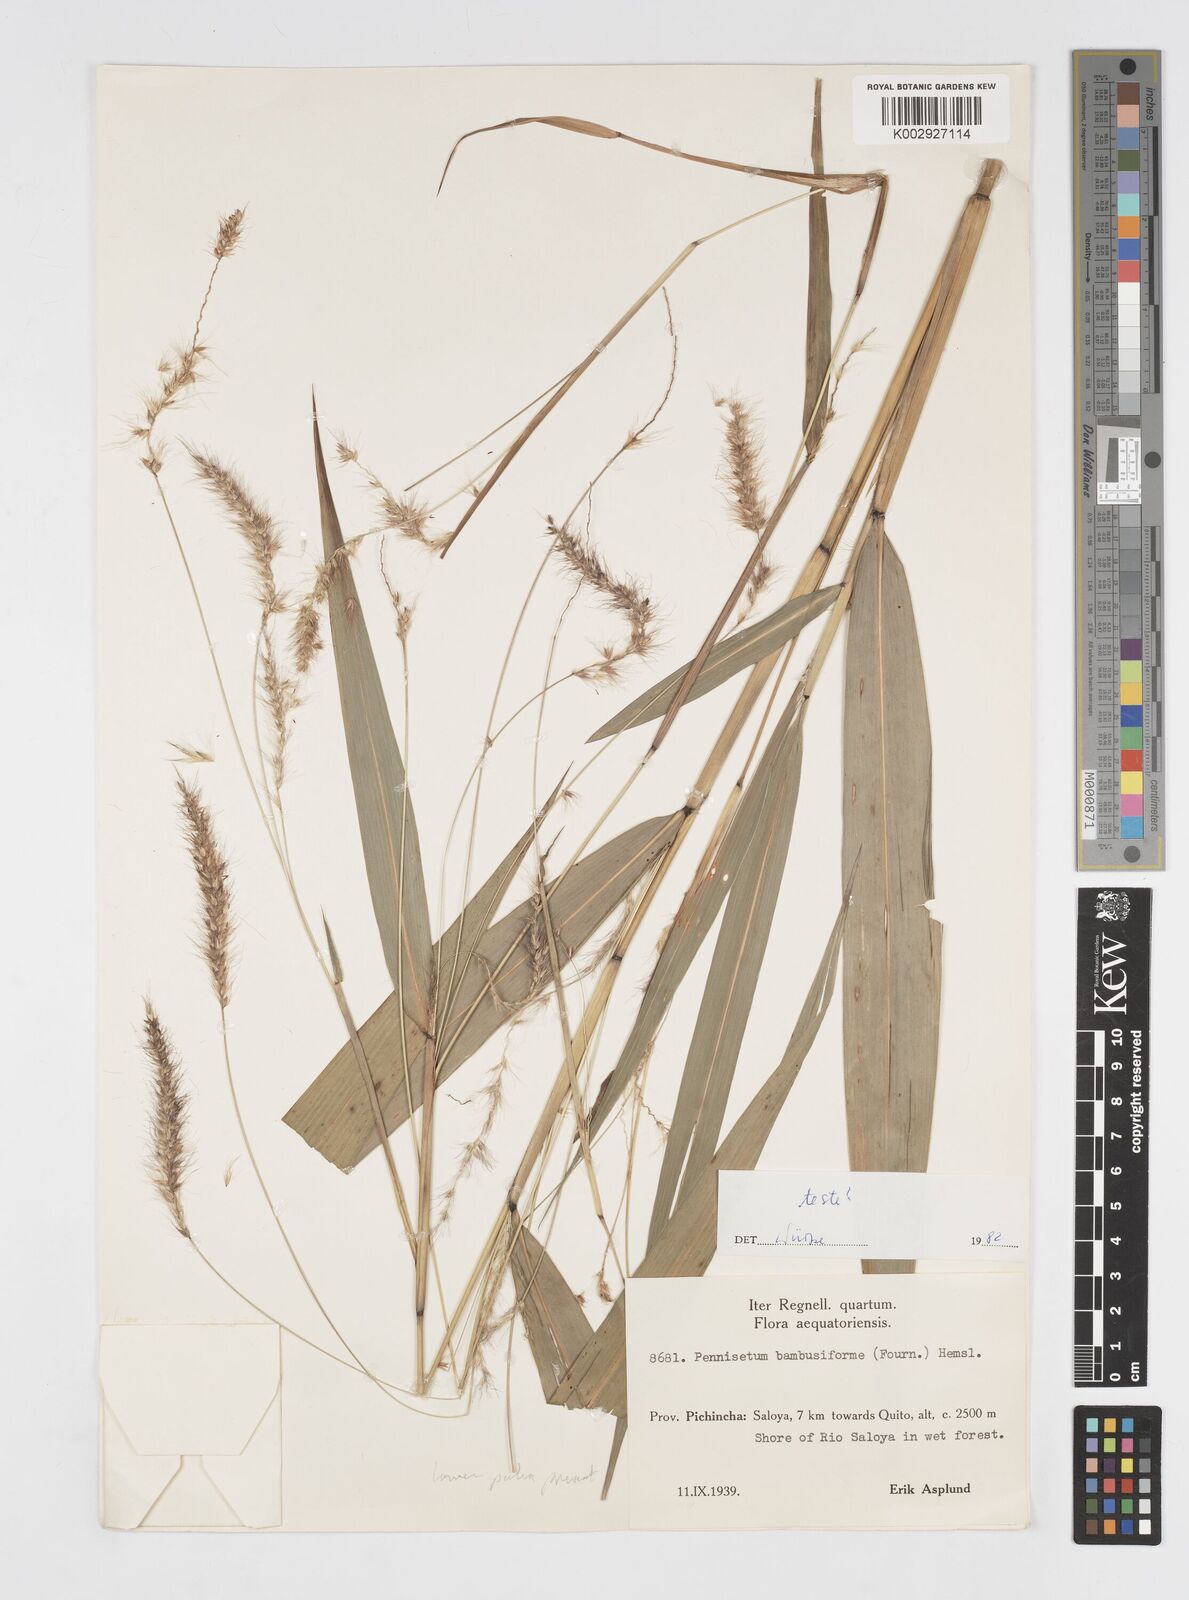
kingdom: Plantae
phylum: Tracheophyta
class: Liliopsida
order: Poales
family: Poaceae
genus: Cenchrus
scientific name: Cenchrus tristachyus
